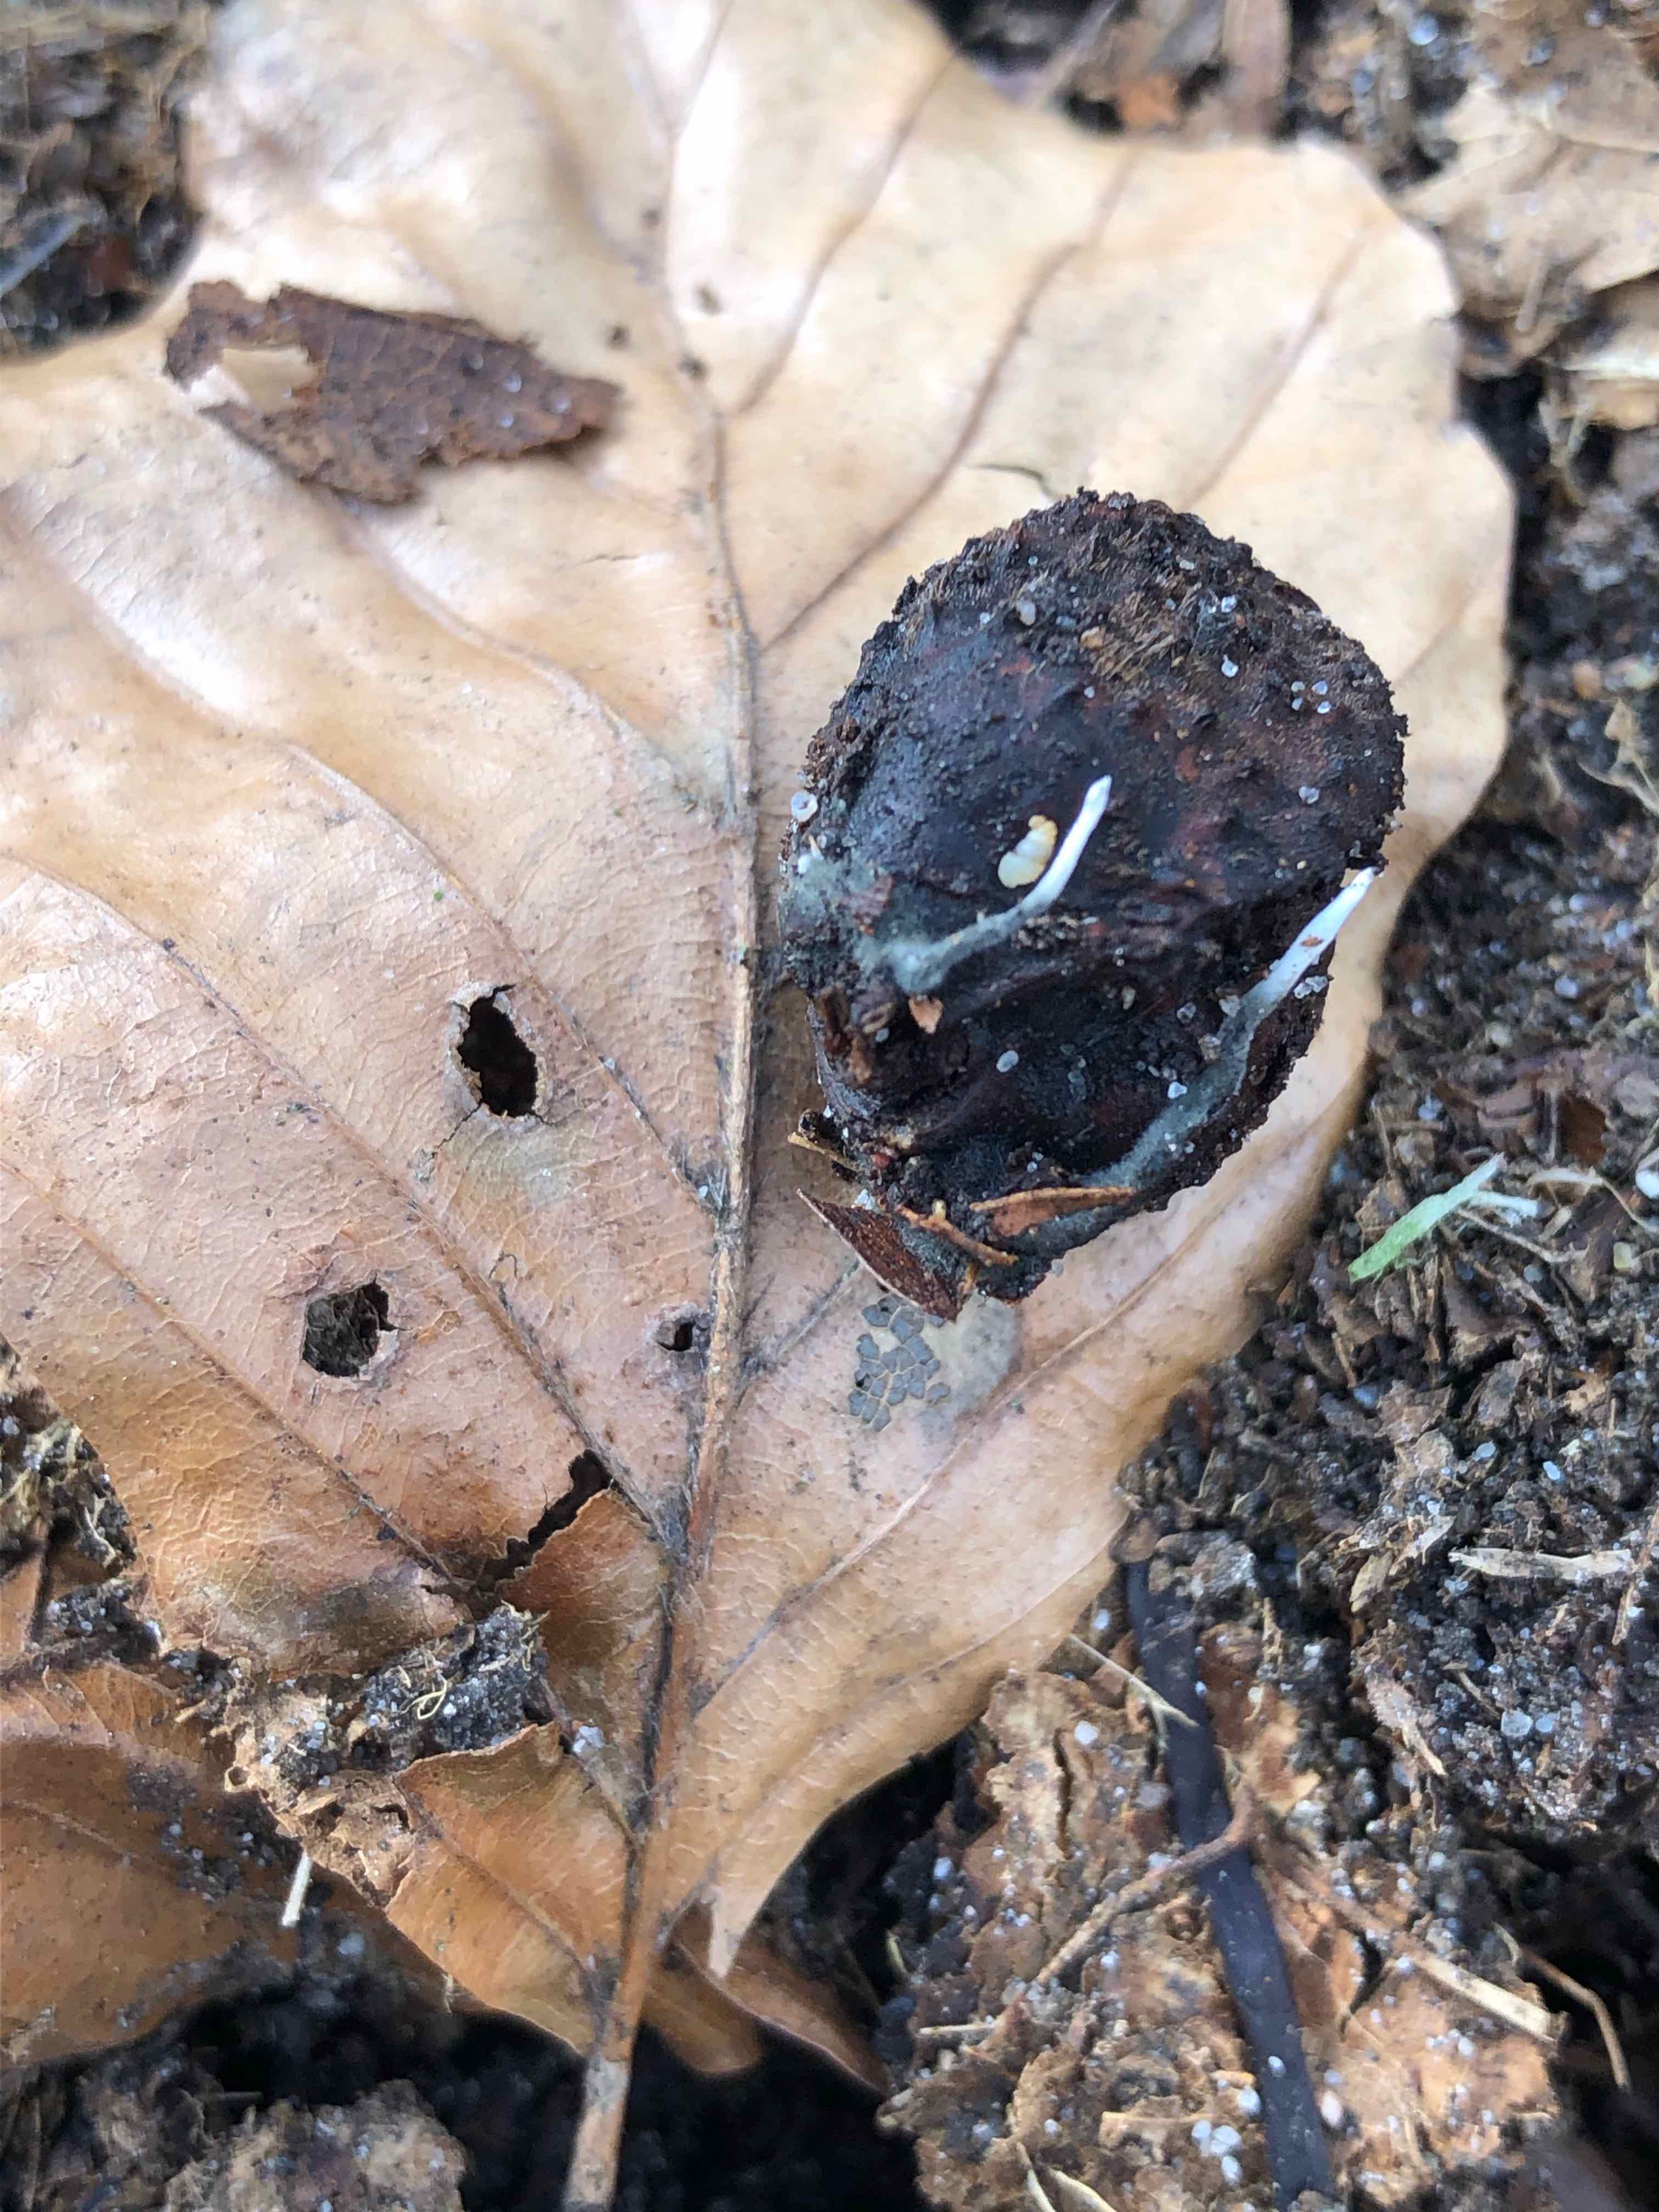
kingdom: Fungi
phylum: Ascomycota
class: Sordariomycetes
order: Xylariales
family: Xylariaceae
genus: Xylaria
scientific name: Xylaria carpophila
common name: bogskål-stødsvamp
